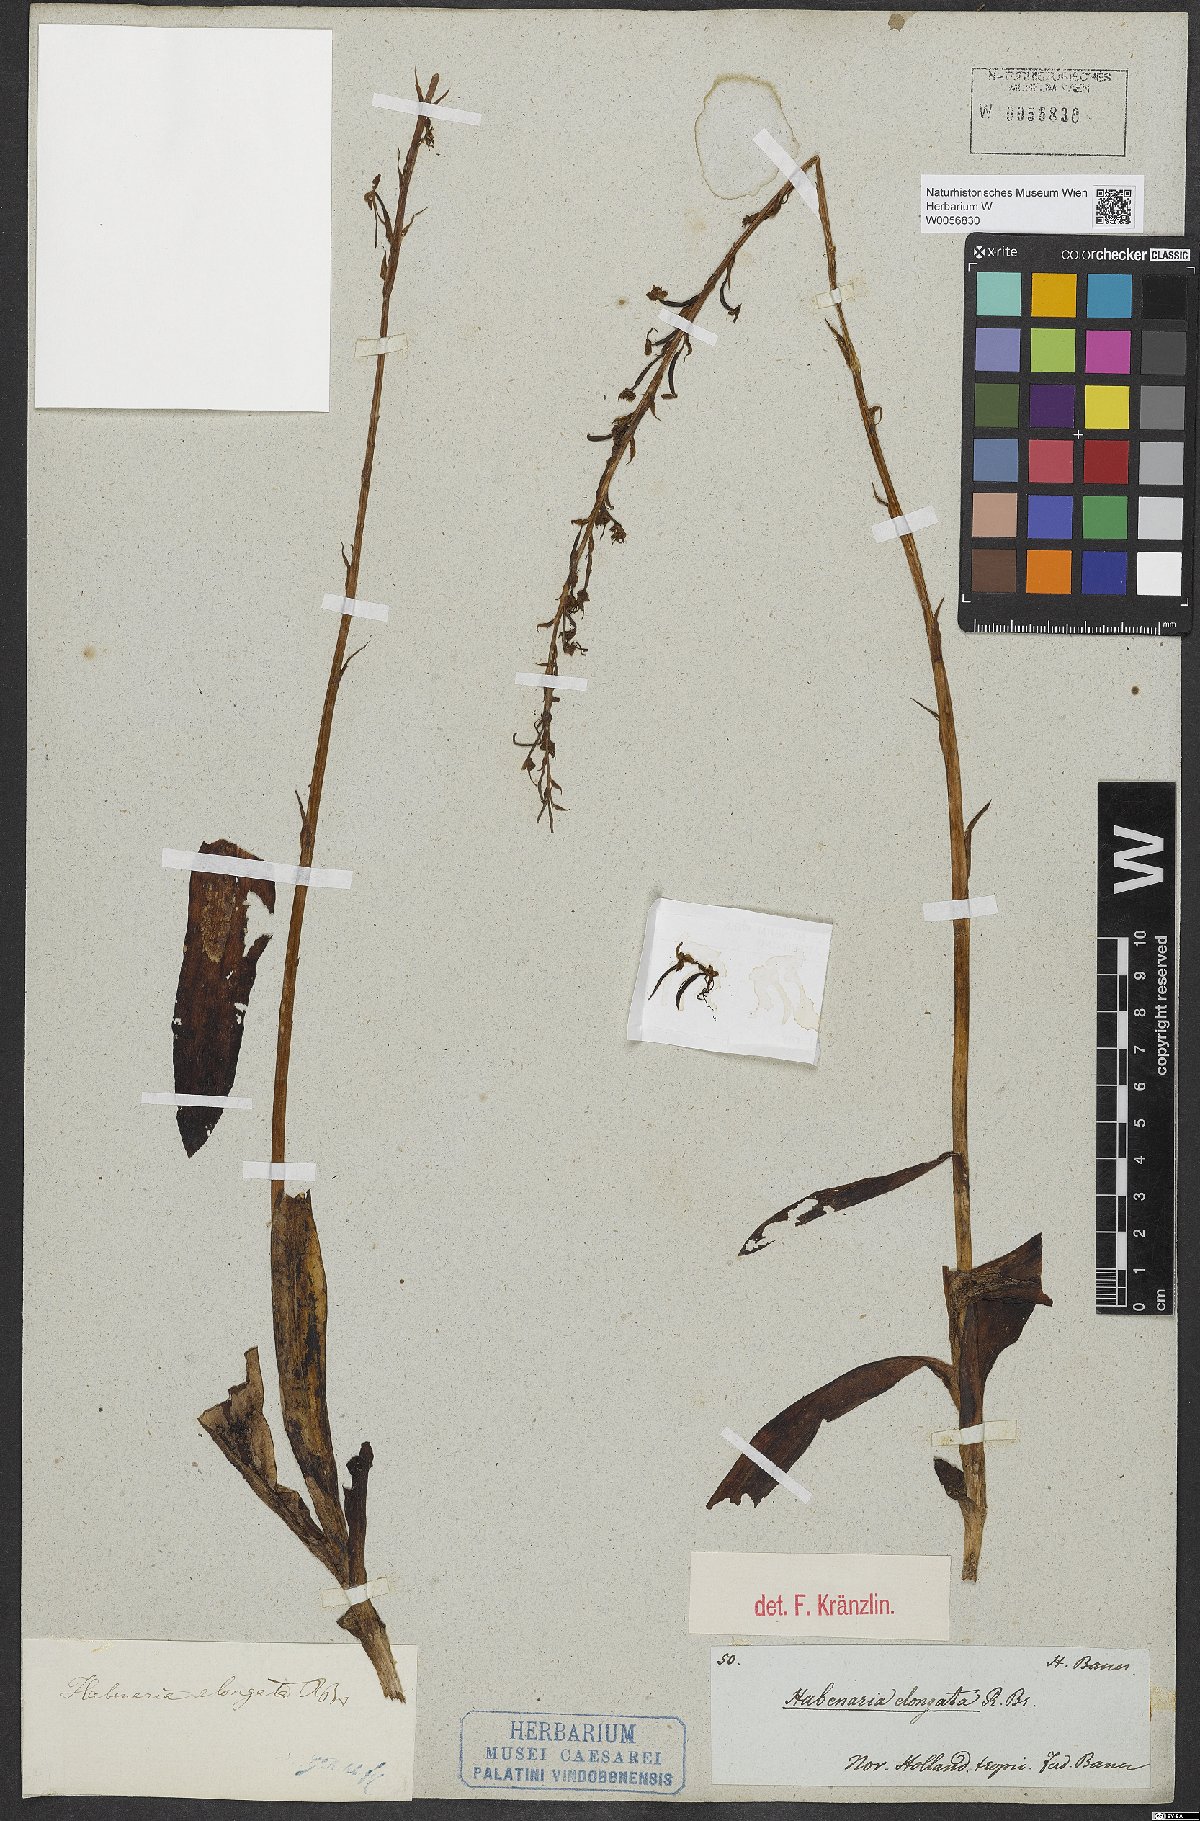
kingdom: Plantae
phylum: Tracheophyta
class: Liliopsida
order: Asparagales
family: Orchidaceae
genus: Habenaria
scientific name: Habenaria elongata
